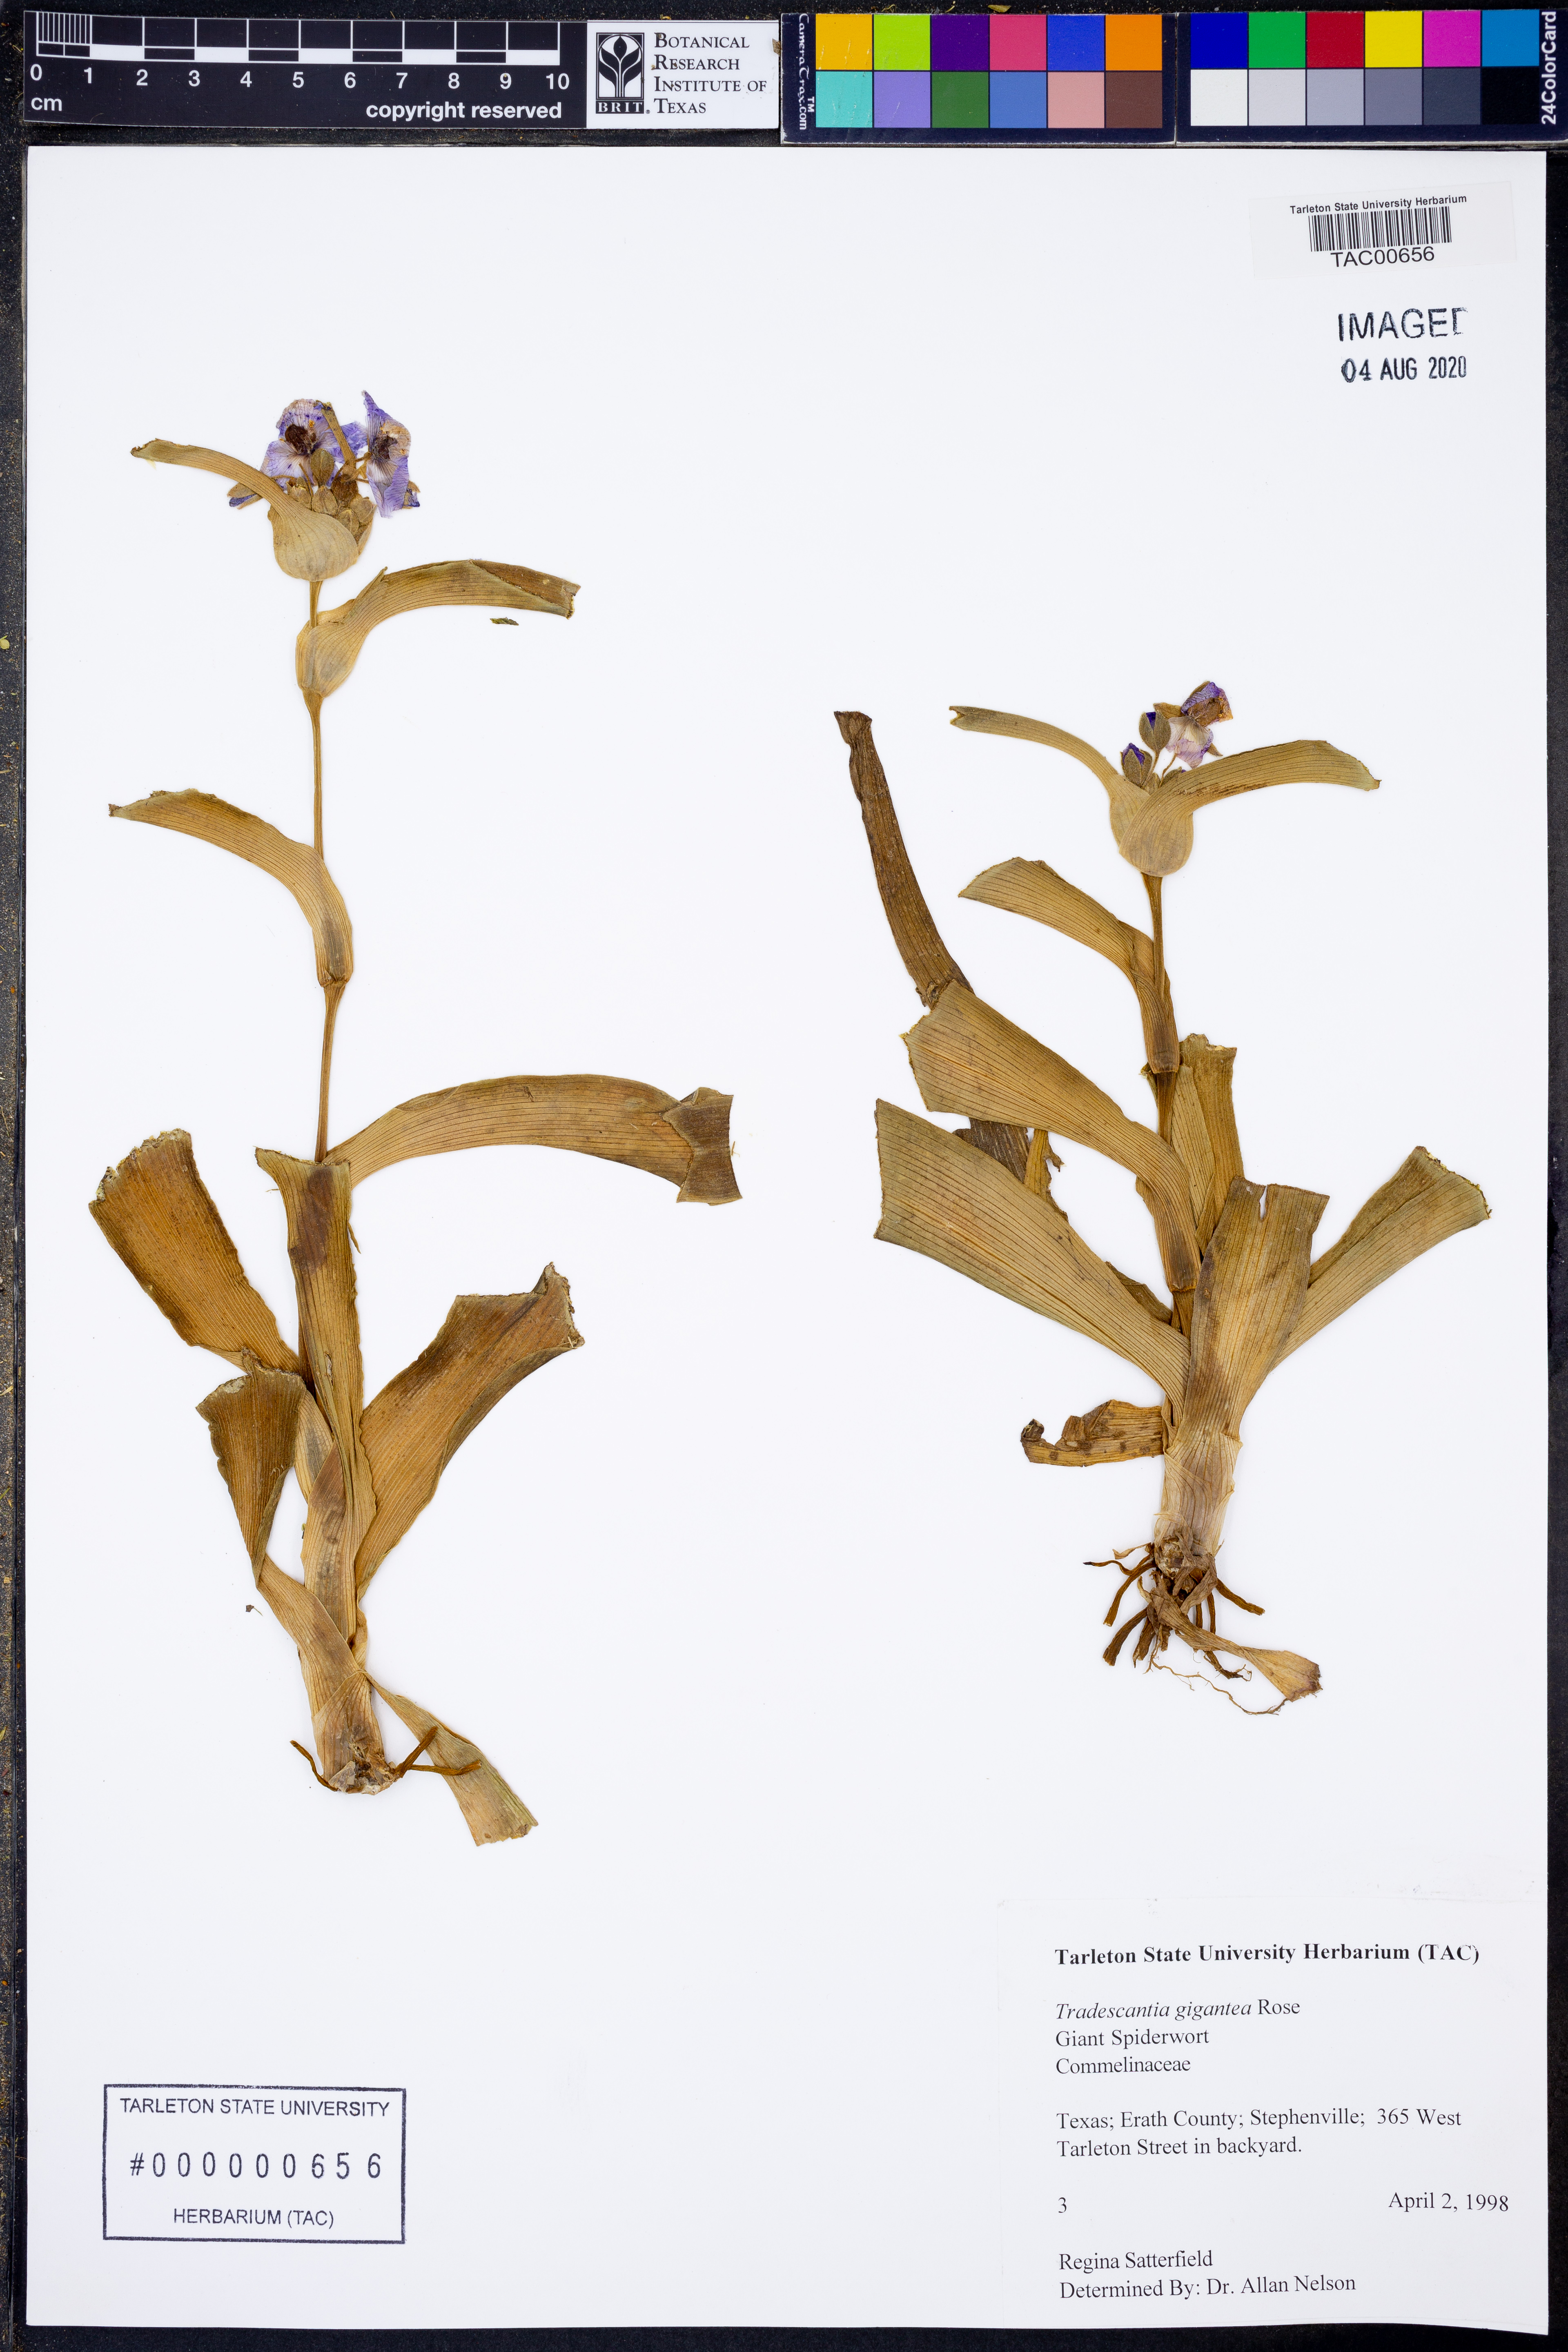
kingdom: Plantae
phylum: Tracheophyta
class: Liliopsida
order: Commelinales
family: Commelinaceae
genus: Tradescantia
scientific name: Tradescantia gigantea
